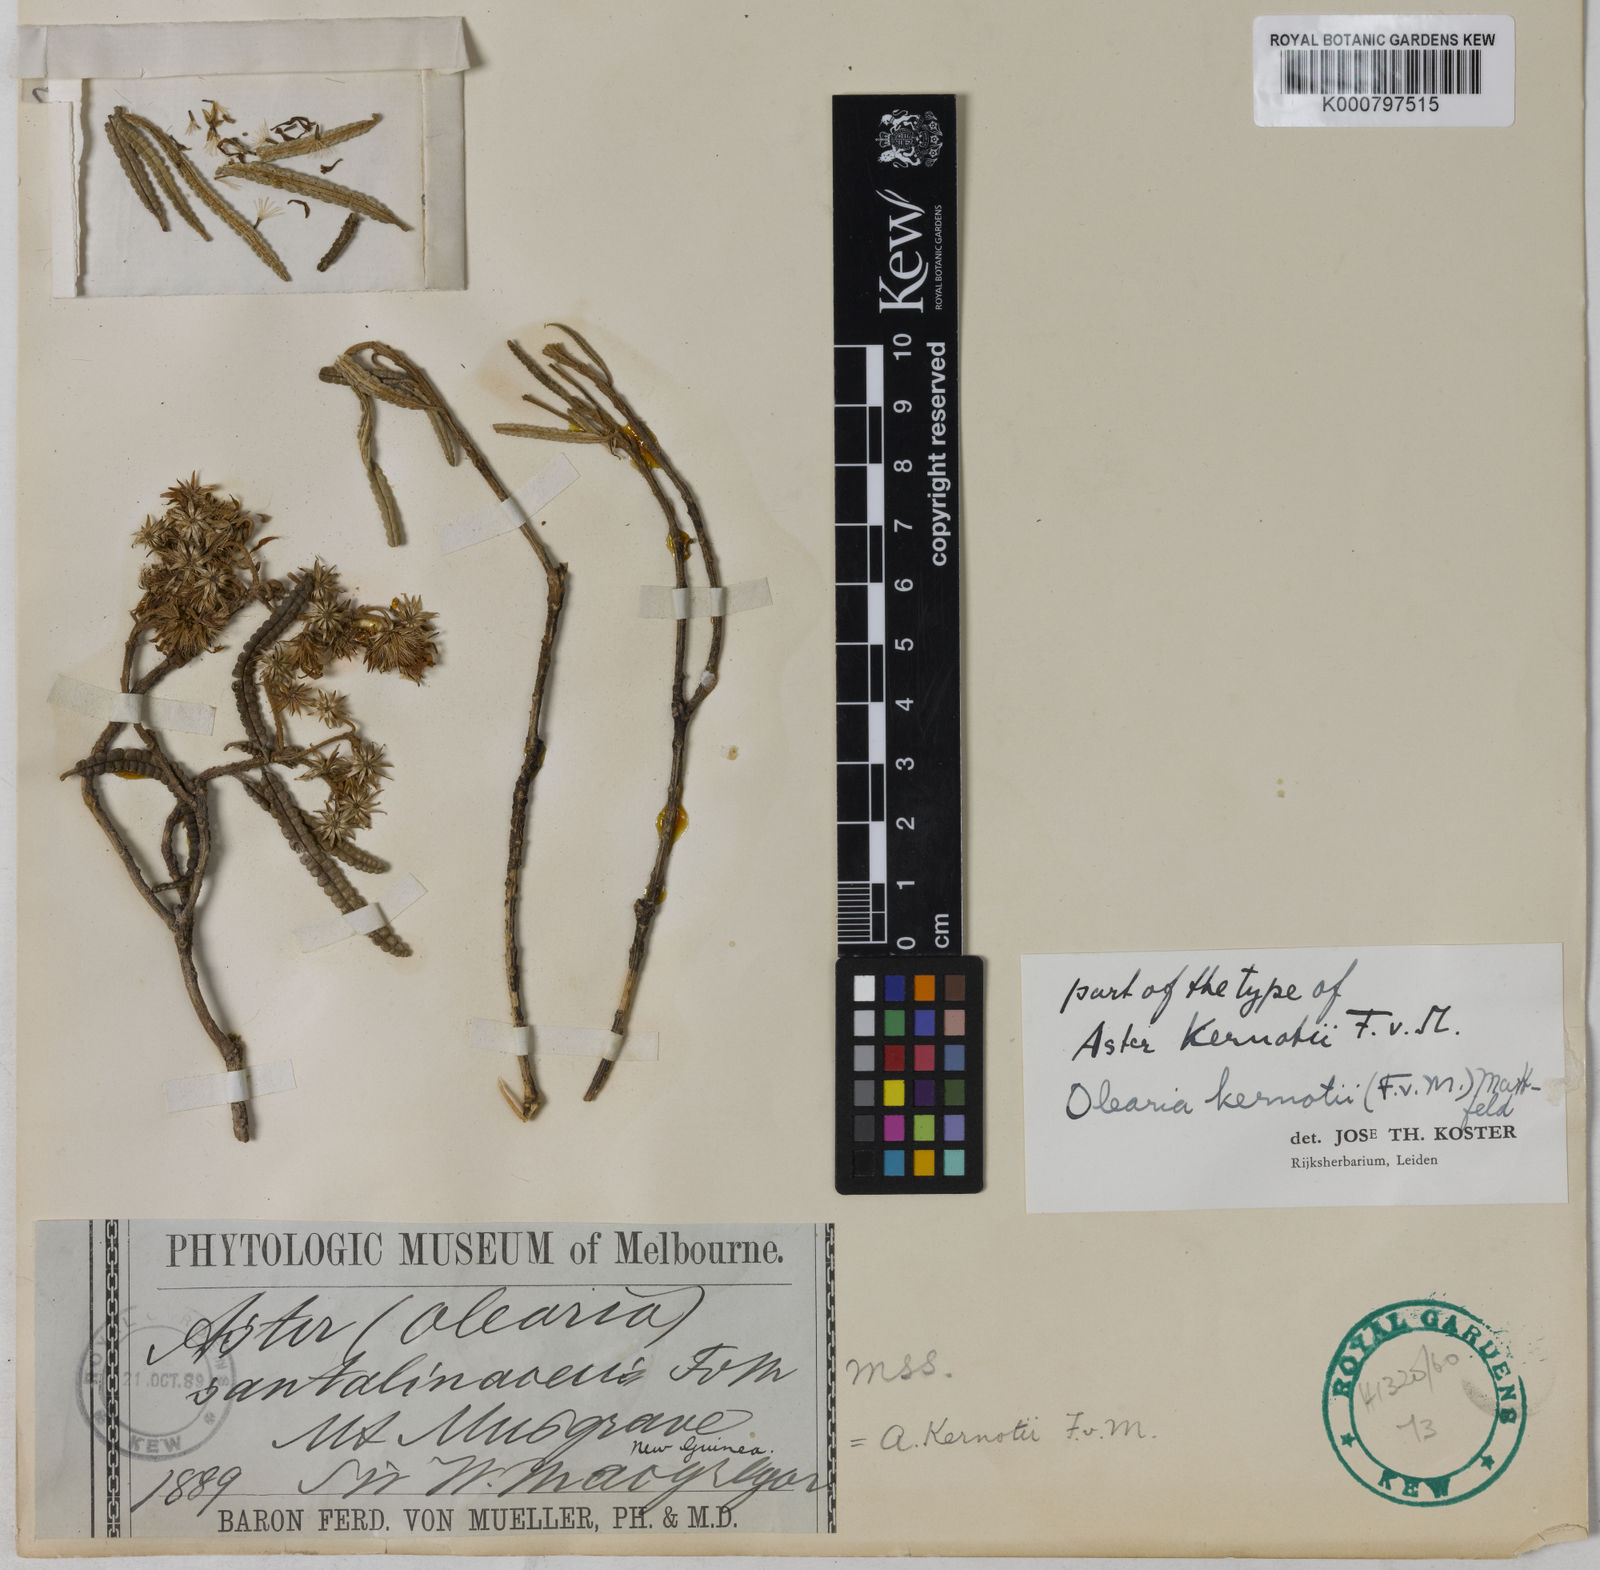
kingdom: Plantae
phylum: Tracheophyta
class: Magnoliopsida
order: Asterales
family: Asteraceae
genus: Olearia
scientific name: Olearia
